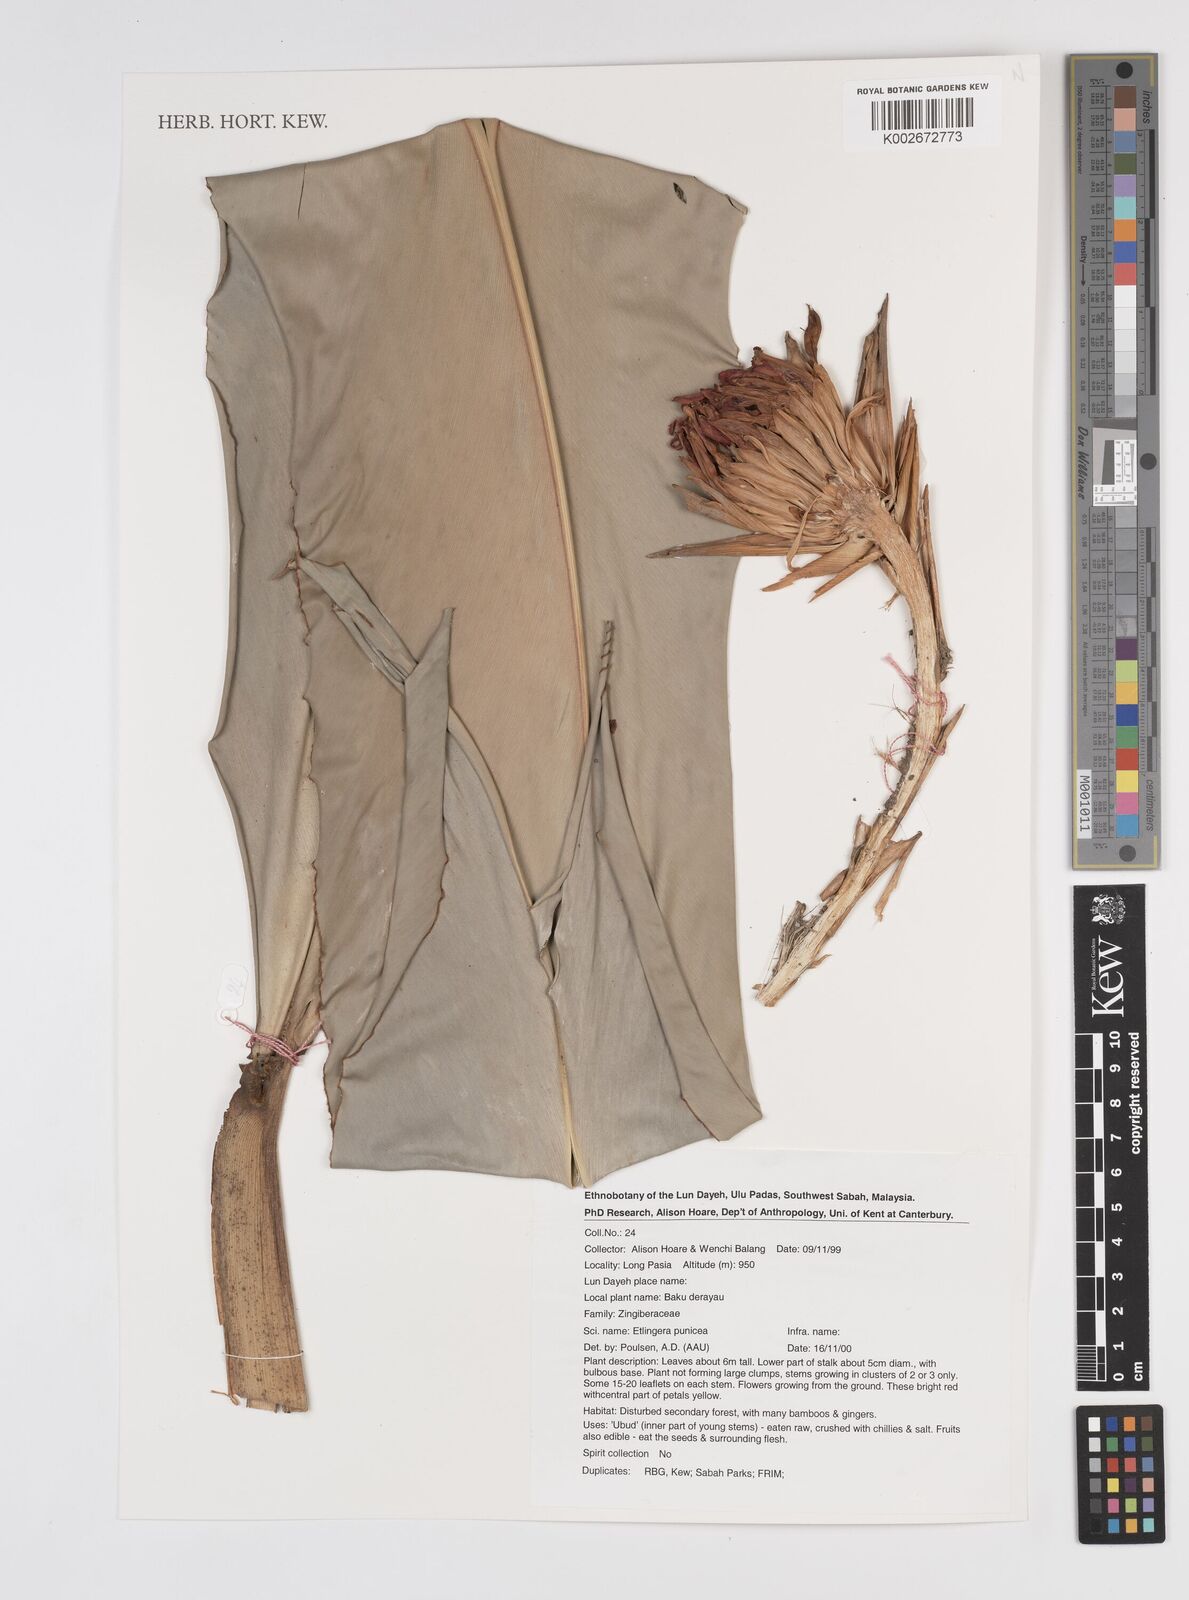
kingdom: Plantae
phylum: Tracheophyta
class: Liliopsida
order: Zingiberales
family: Zingiberaceae
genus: Etlingera
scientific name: Etlingera punicea
